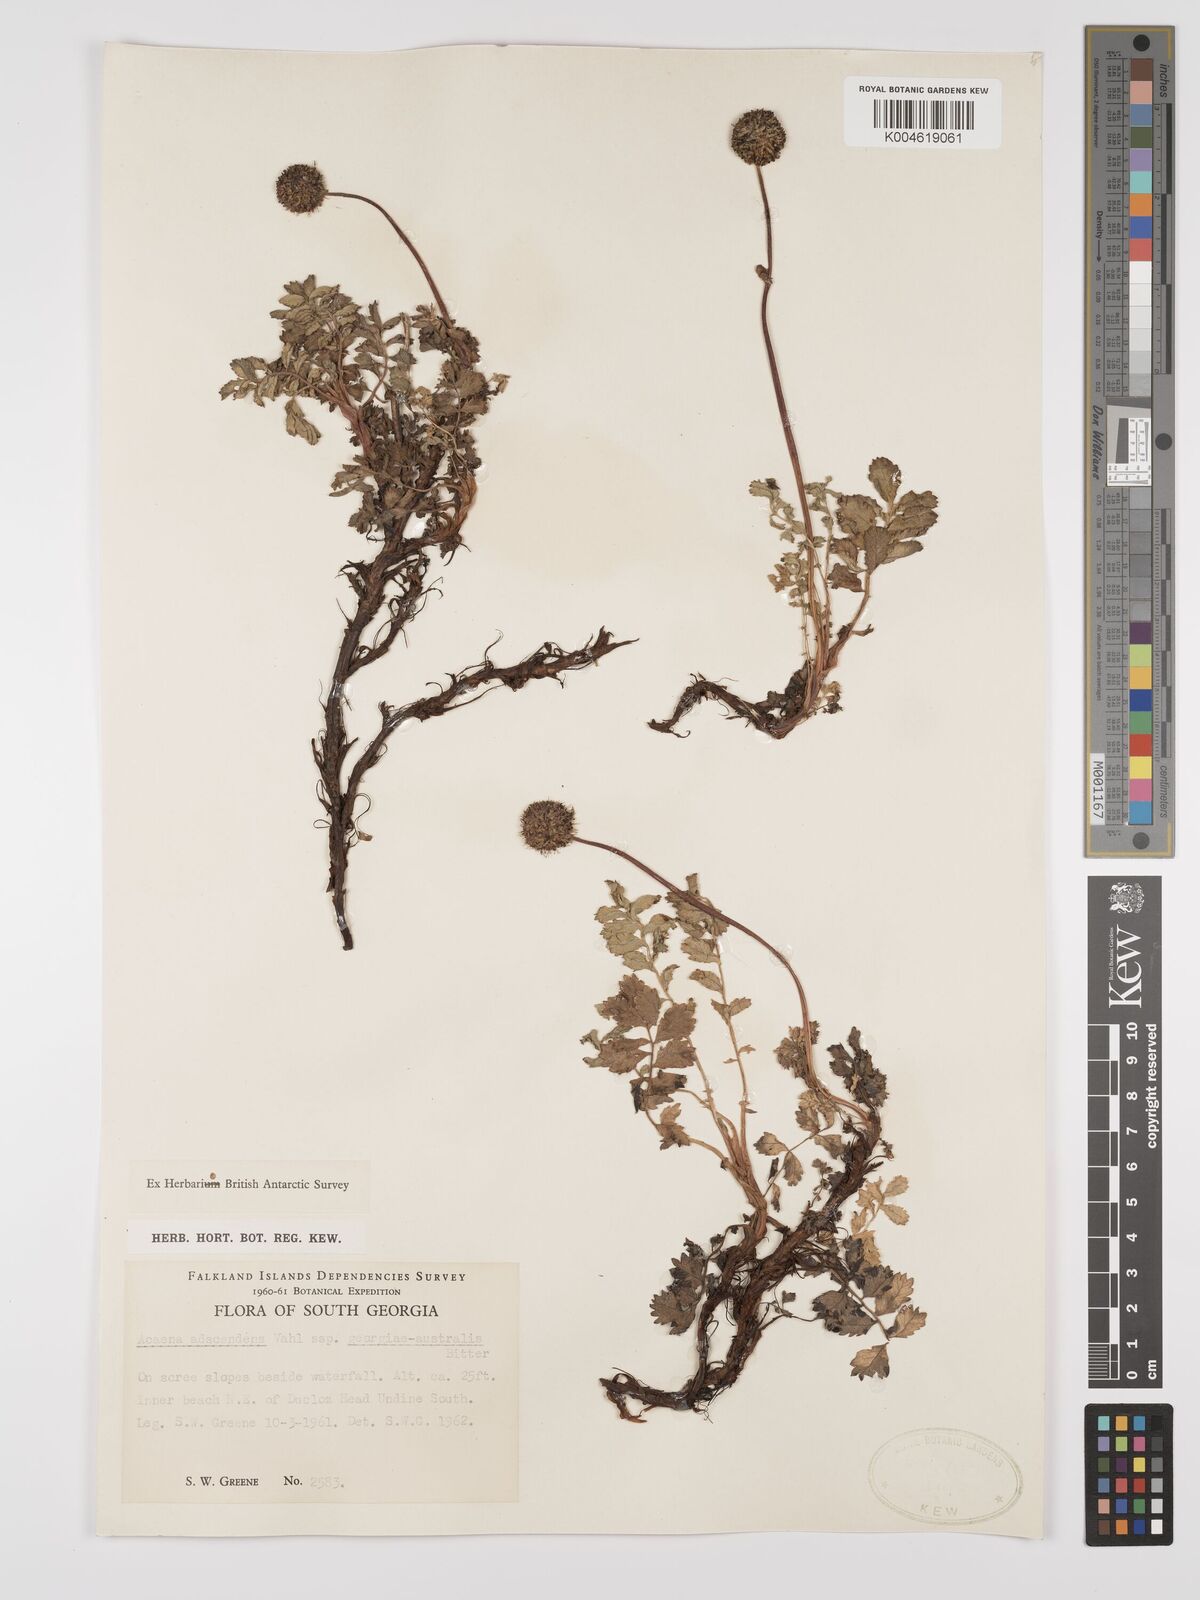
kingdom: Plantae
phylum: Tracheophyta
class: Magnoliopsida
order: Rosales
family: Rosaceae
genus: Acaena
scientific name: Acaena magellanica
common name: New zealand burr
